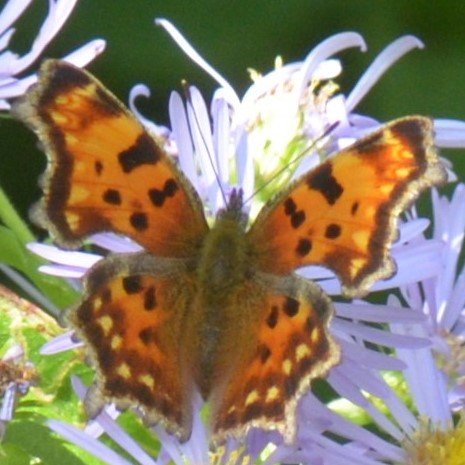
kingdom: Animalia
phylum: Arthropoda
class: Insecta
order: Lepidoptera
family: Nymphalidae
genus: Polygonia
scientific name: Polygonia faunus
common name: Green Comma
